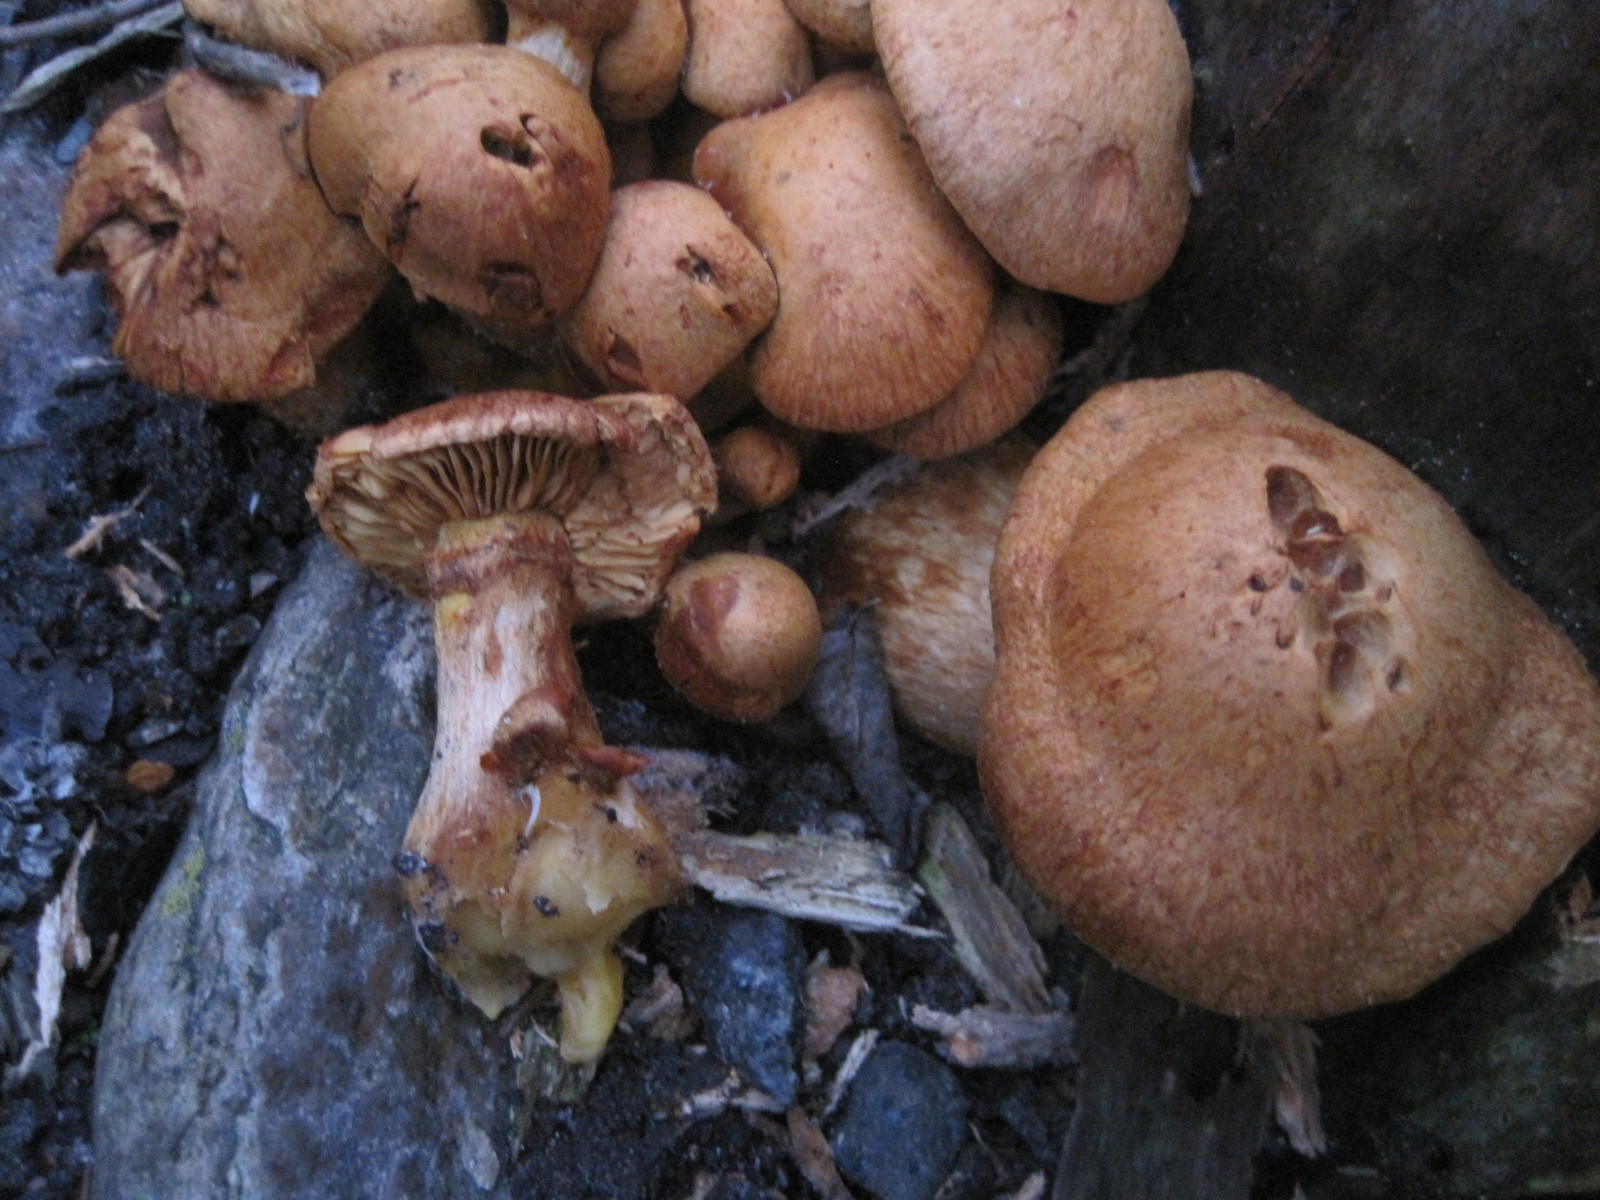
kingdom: Fungi
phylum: Basidiomycota
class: Agaricomycetes
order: Agaricales
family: Hymenogastraceae
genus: Gymnopilus
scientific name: Gymnopilus spectabilis
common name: fibret flammehat
